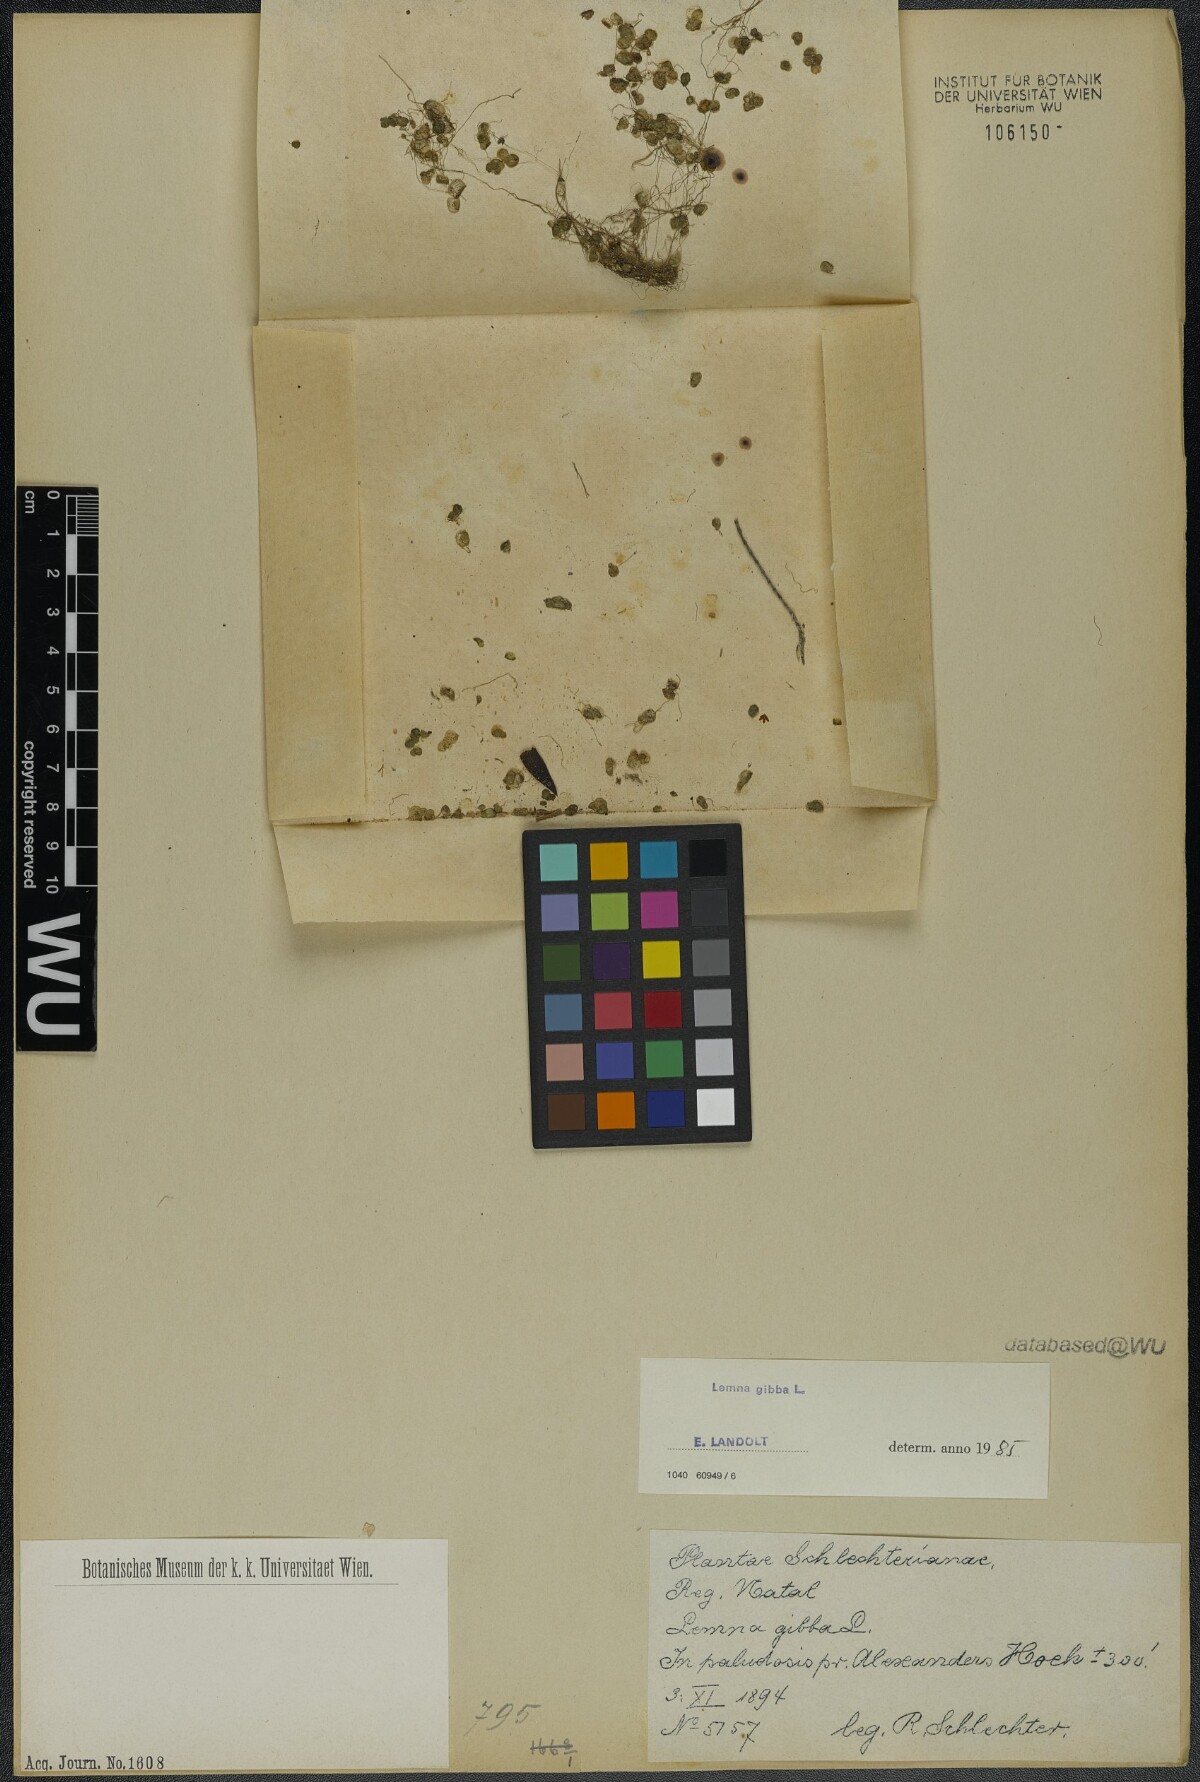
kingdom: Plantae
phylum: Tracheophyta
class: Liliopsida
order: Alismatales
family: Araceae
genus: Lemna
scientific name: Lemna gibba
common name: Fat duckweed
